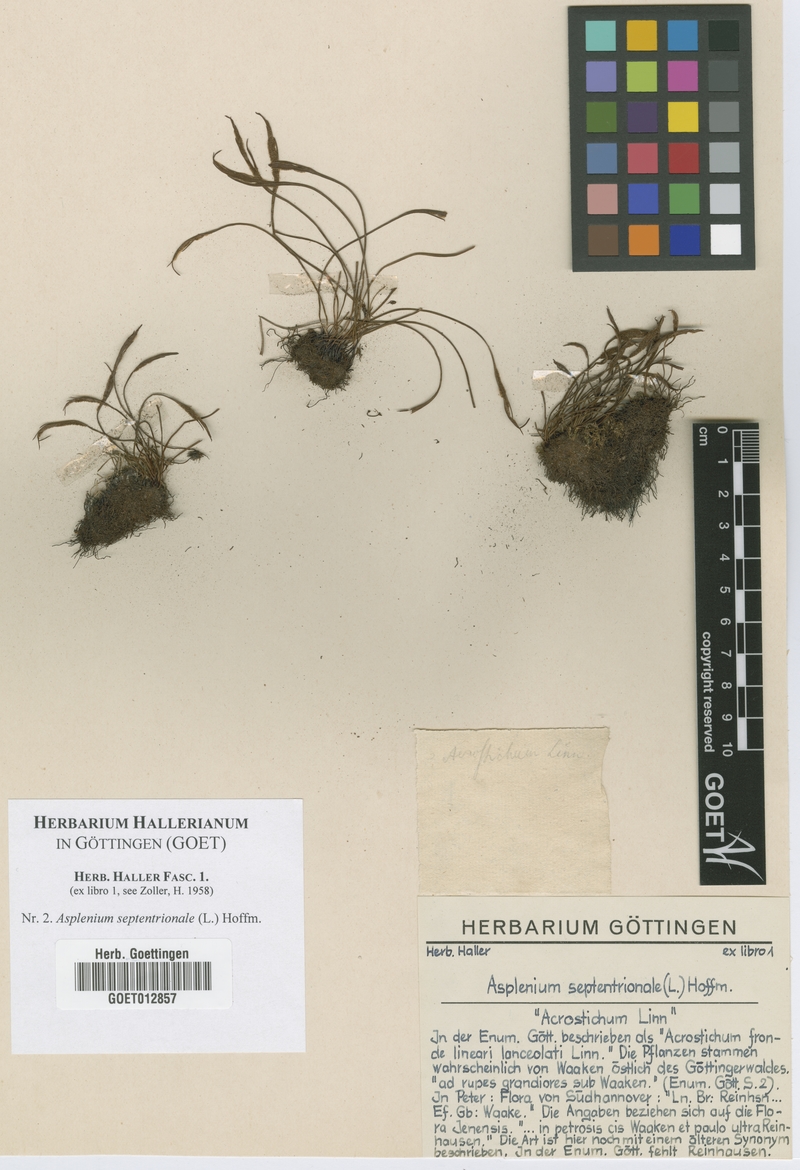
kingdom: Plantae
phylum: Tracheophyta
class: Polypodiopsida
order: Polypodiales
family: Aspleniaceae
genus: Asplenium
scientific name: Asplenium septentrionale
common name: Forked spleenwort
